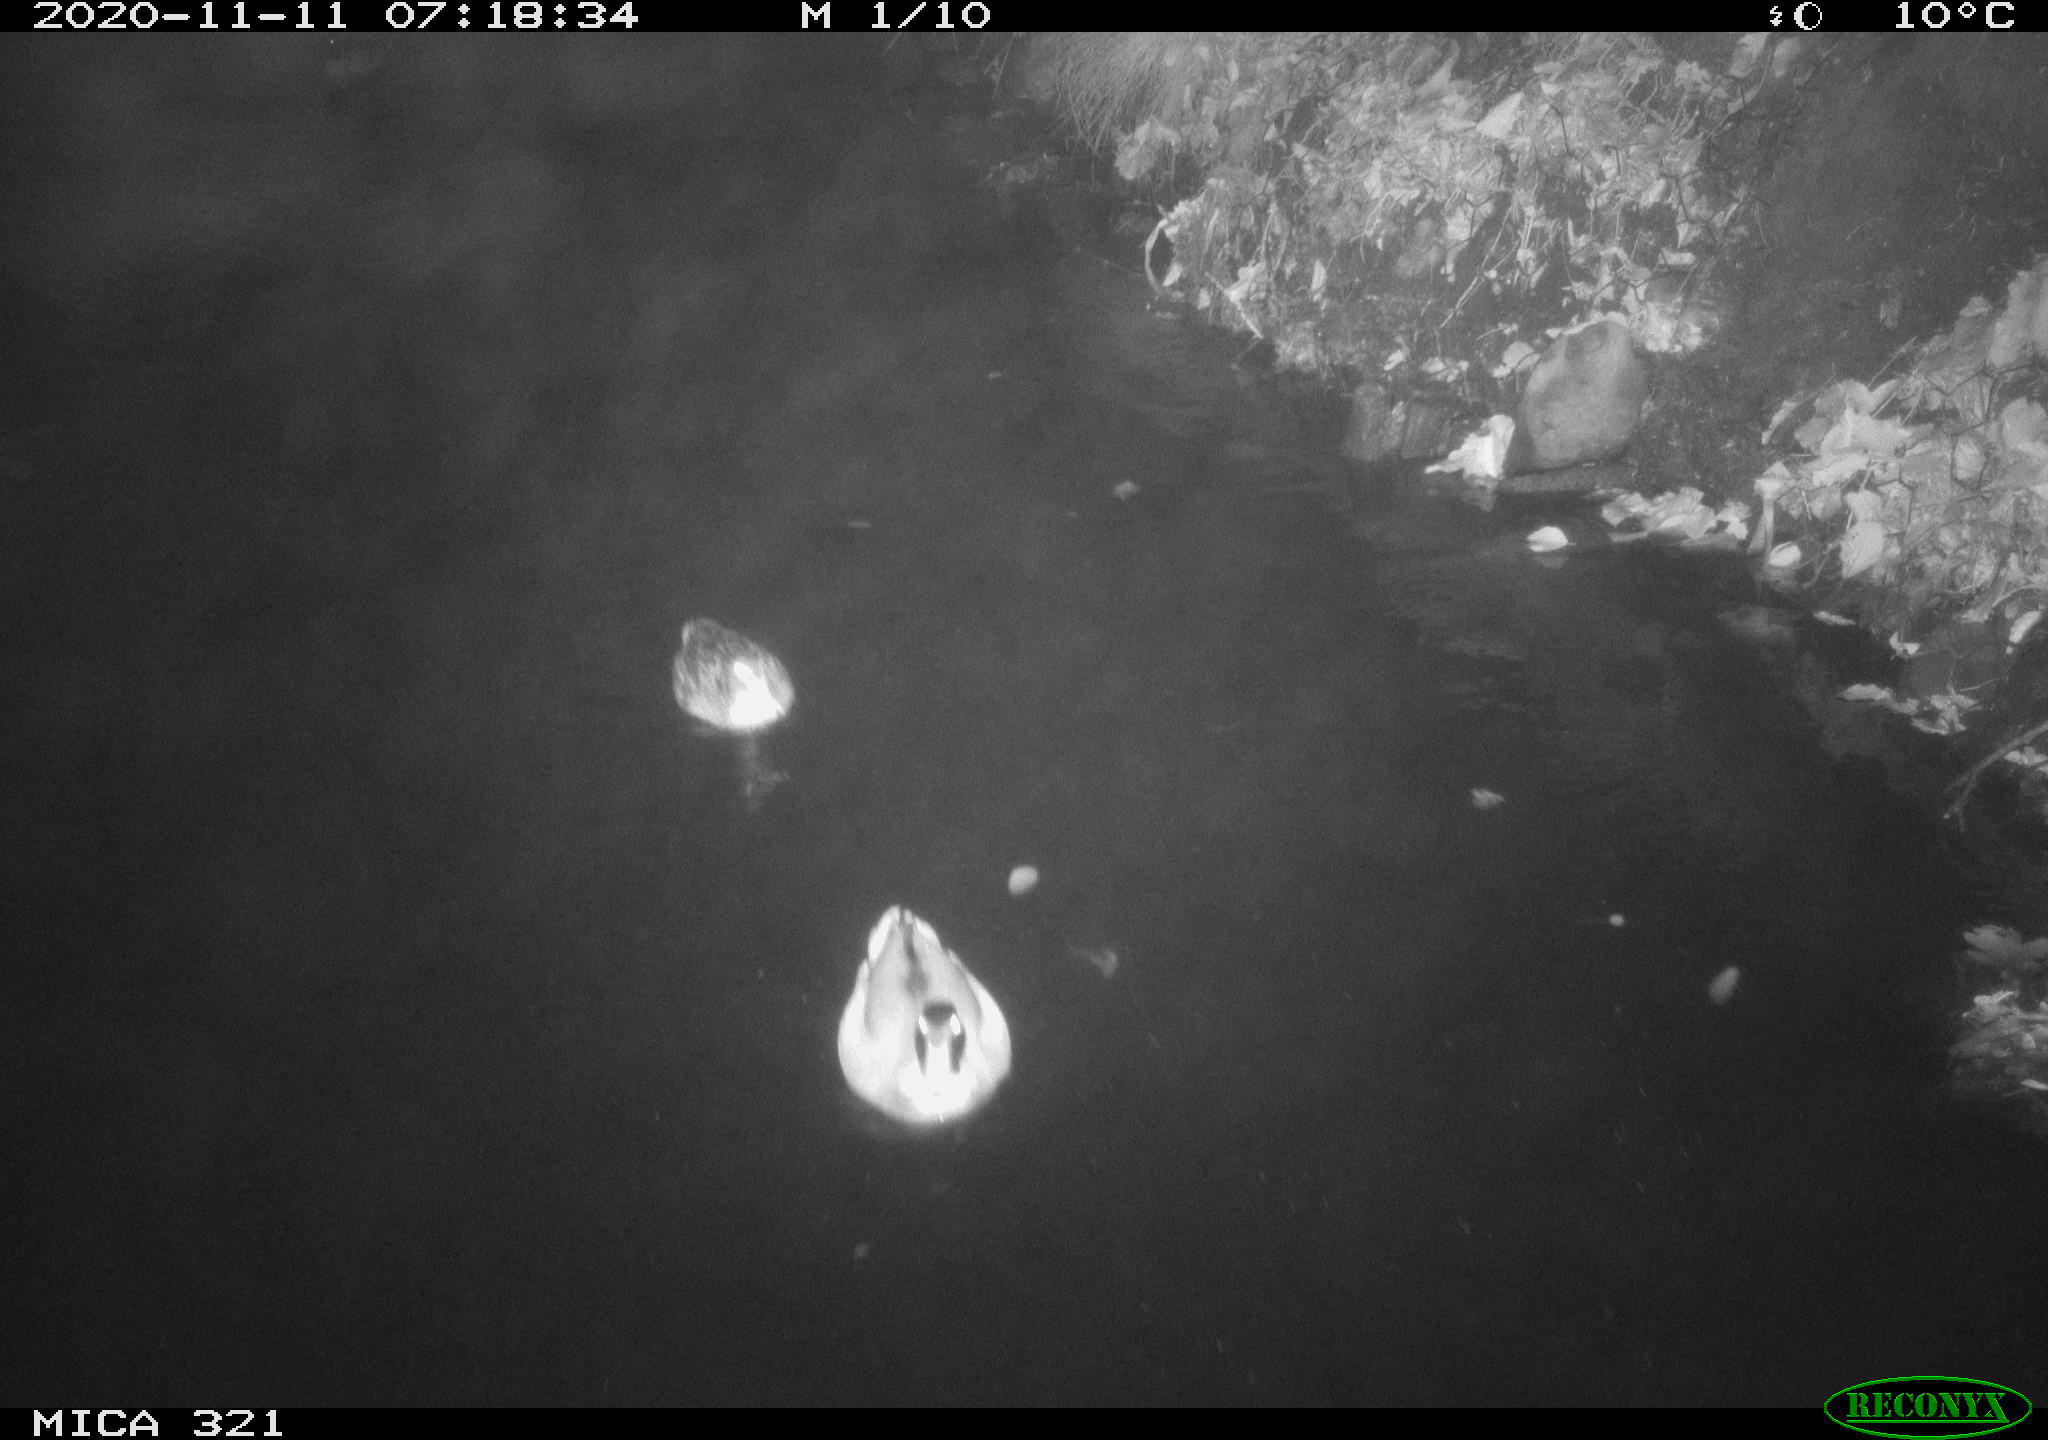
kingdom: Animalia
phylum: Chordata
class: Aves
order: Anseriformes
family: Anatidae
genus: Anas
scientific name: Anas platyrhynchos
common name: Mallard
